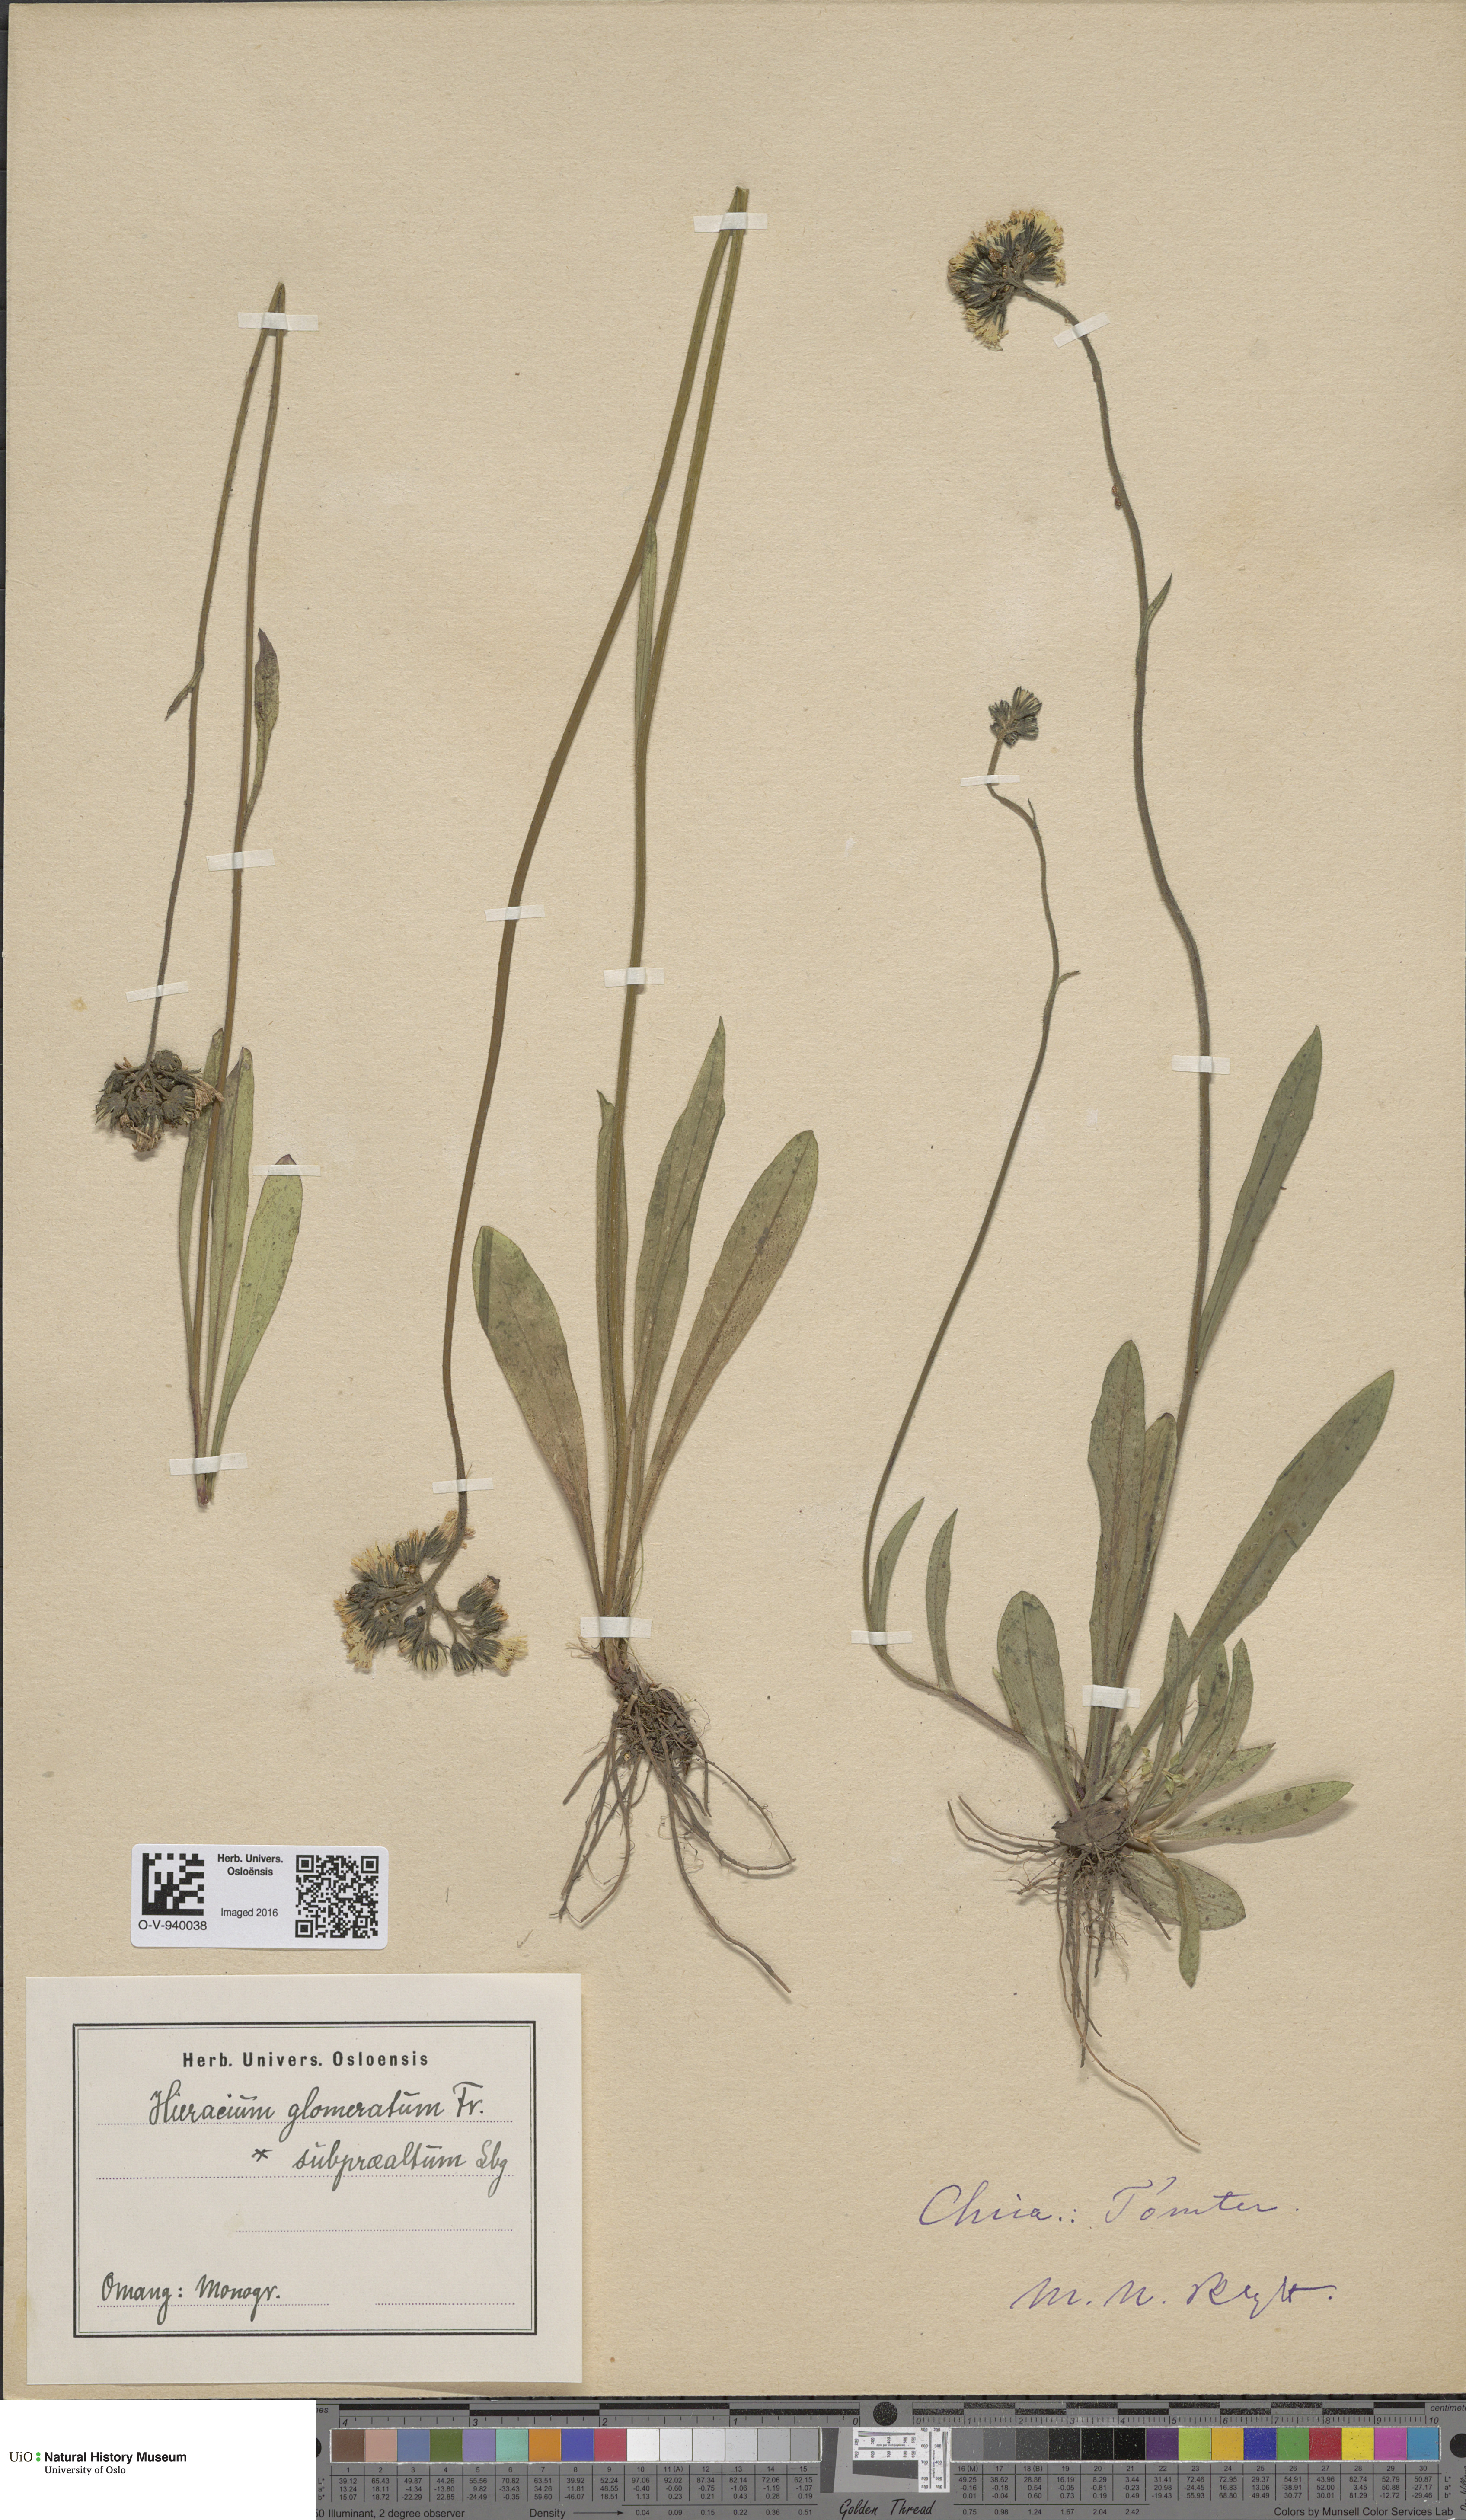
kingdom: Plantae
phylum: Tracheophyta
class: Magnoliopsida
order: Asterales
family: Asteraceae
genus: Pilosella
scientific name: Pilosella glomerata
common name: Queen devil hawkweed
